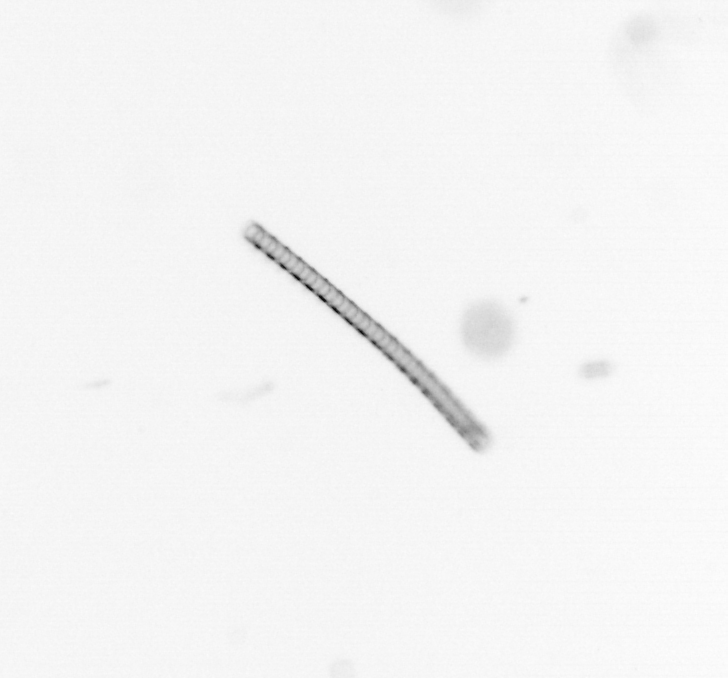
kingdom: Chromista
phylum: Ochrophyta
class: Bacillariophyceae
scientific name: Bacillariophyceae
